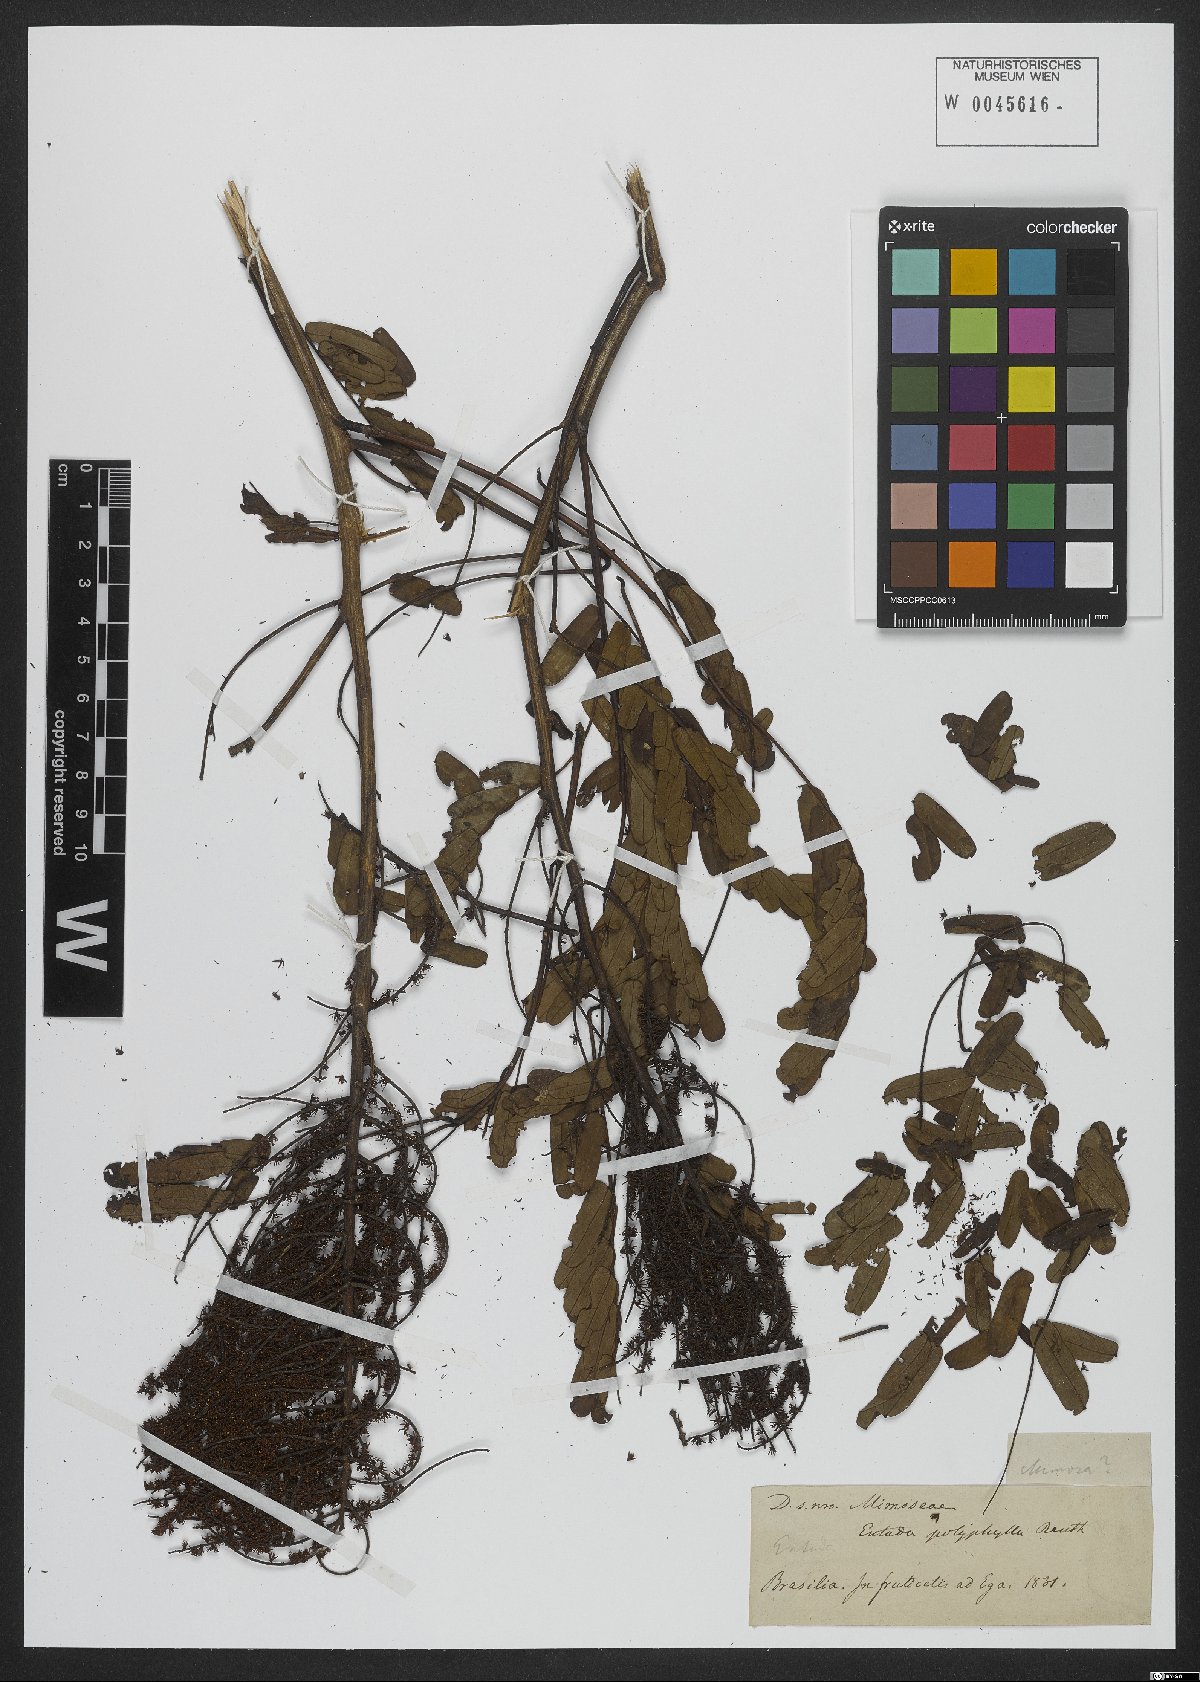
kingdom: Plantae
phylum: Tracheophyta
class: Magnoliopsida
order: Fabales
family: Fabaceae
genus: Entada
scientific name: Entada polyphylla
